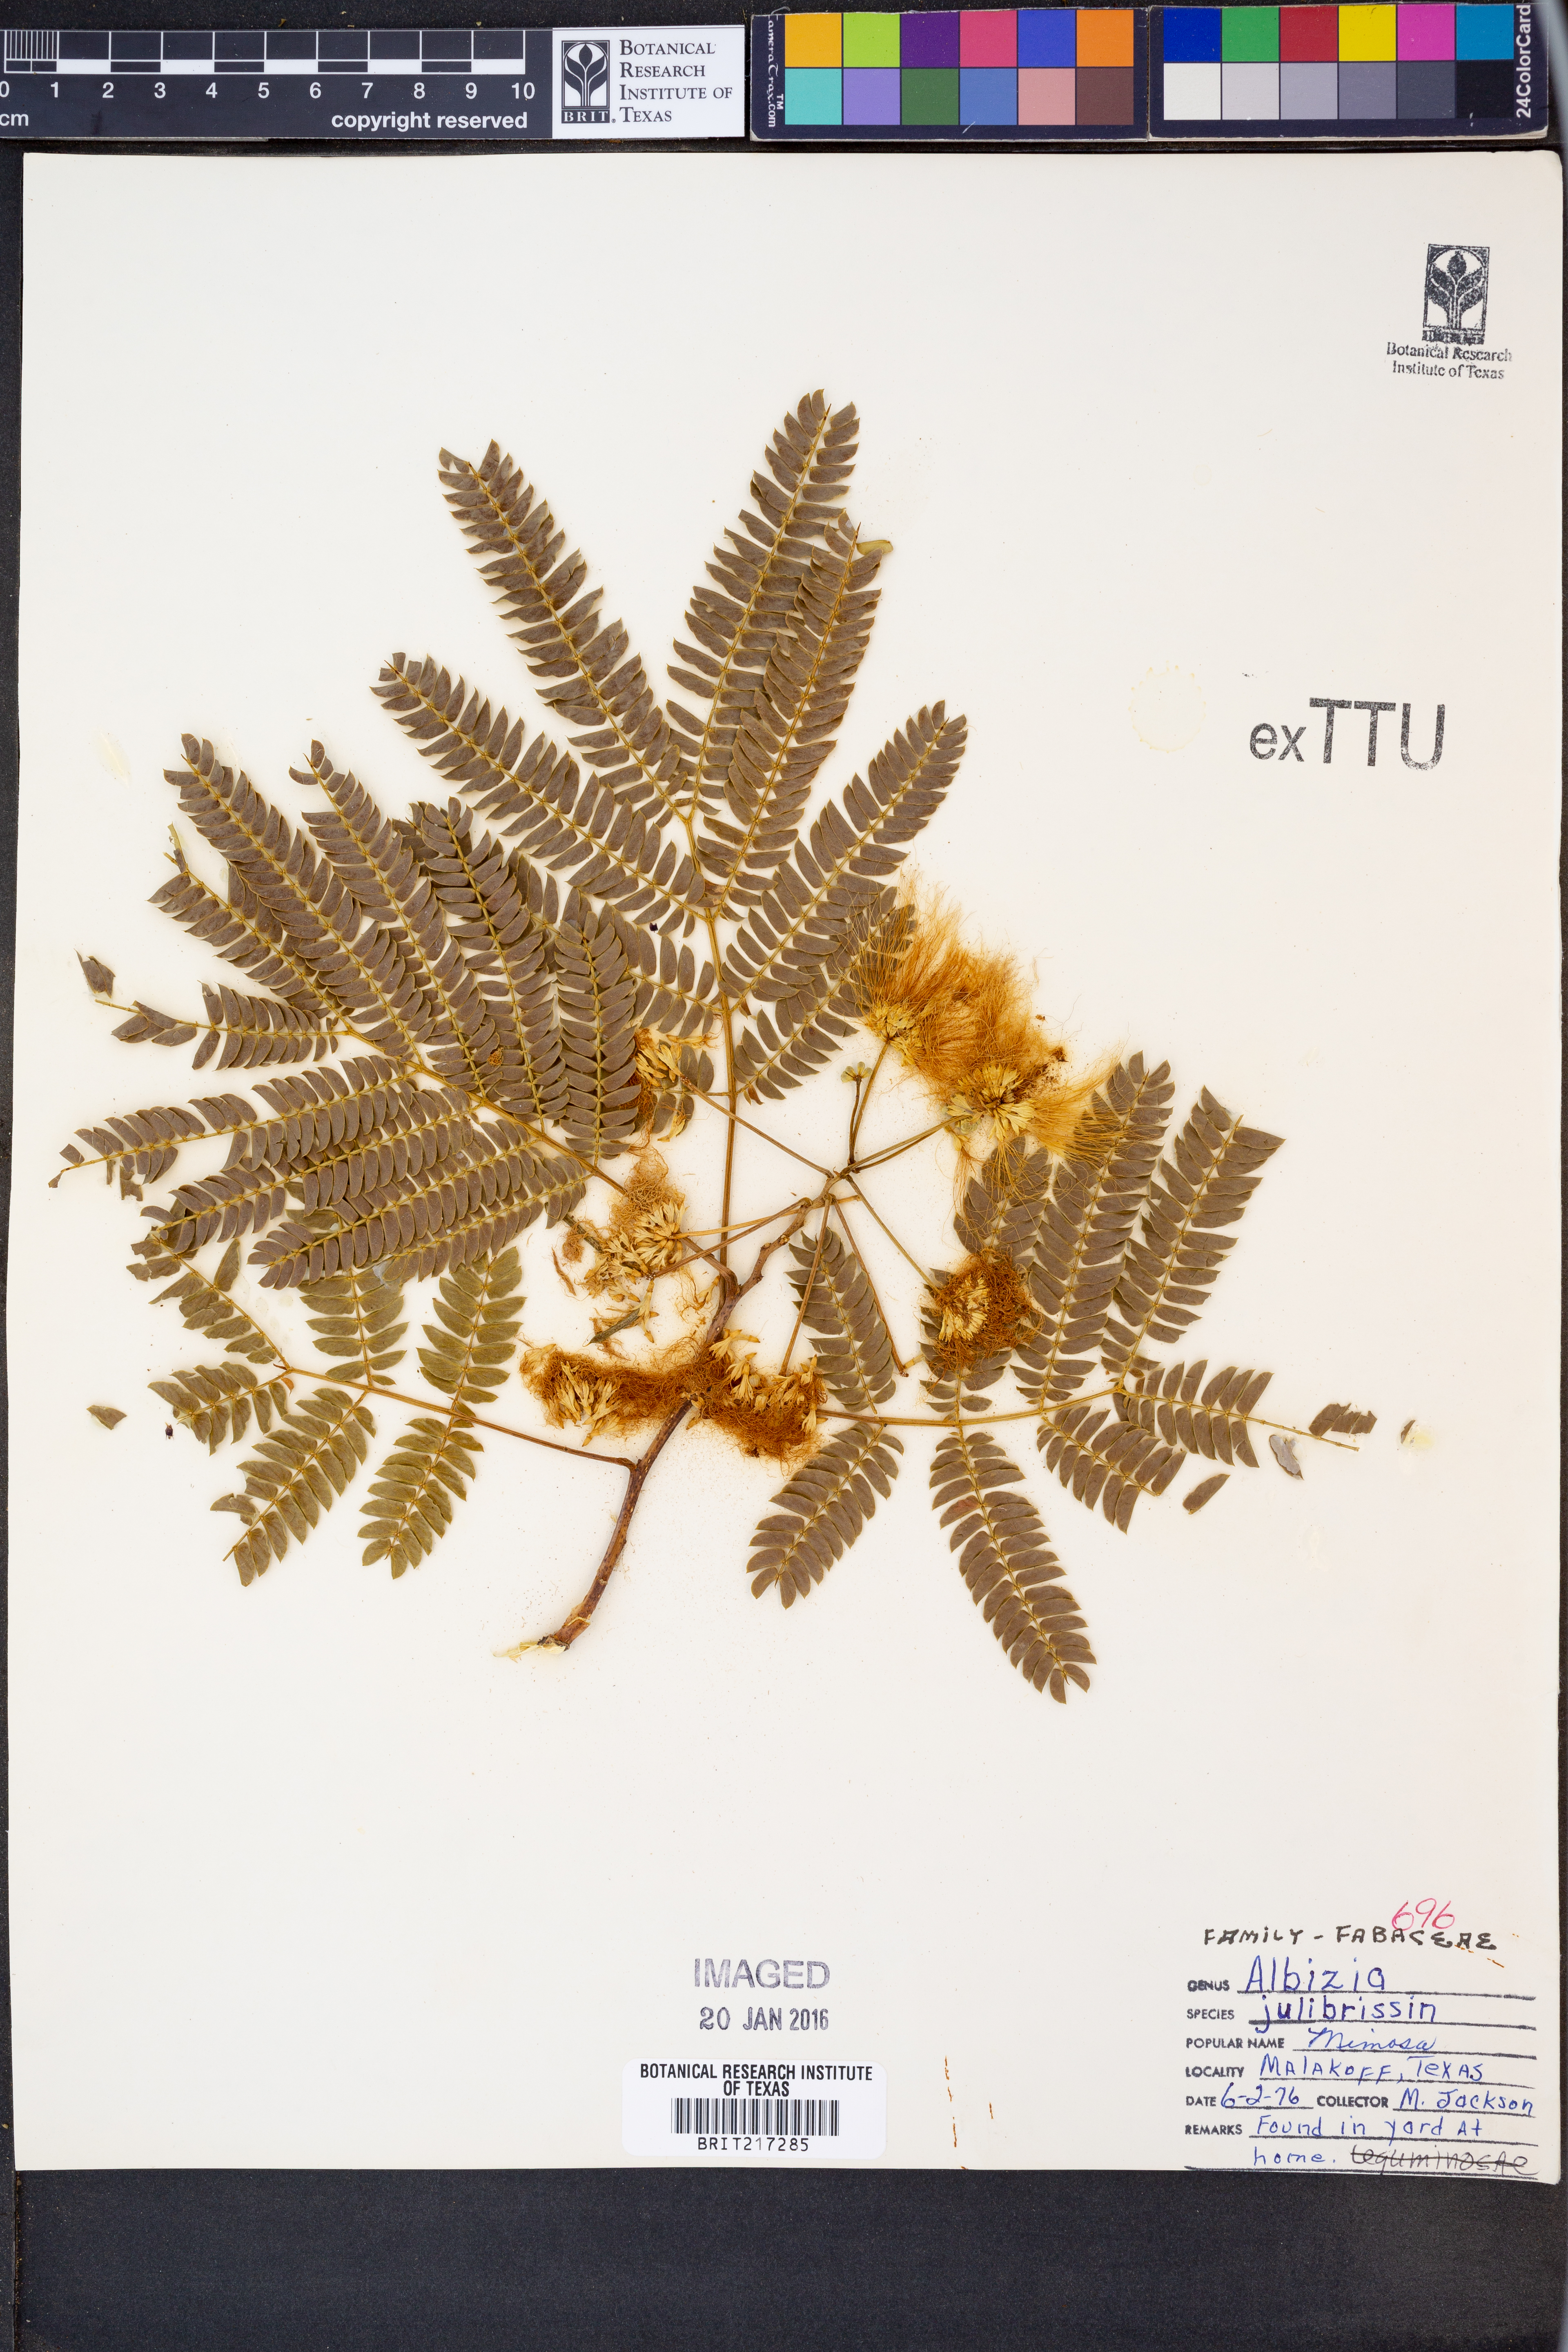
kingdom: Plantae
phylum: Tracheophyta
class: Magnoliopsida
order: Fabales
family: Fabaceae
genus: Albizia
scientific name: Albizia julibrissin
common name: Silktree
